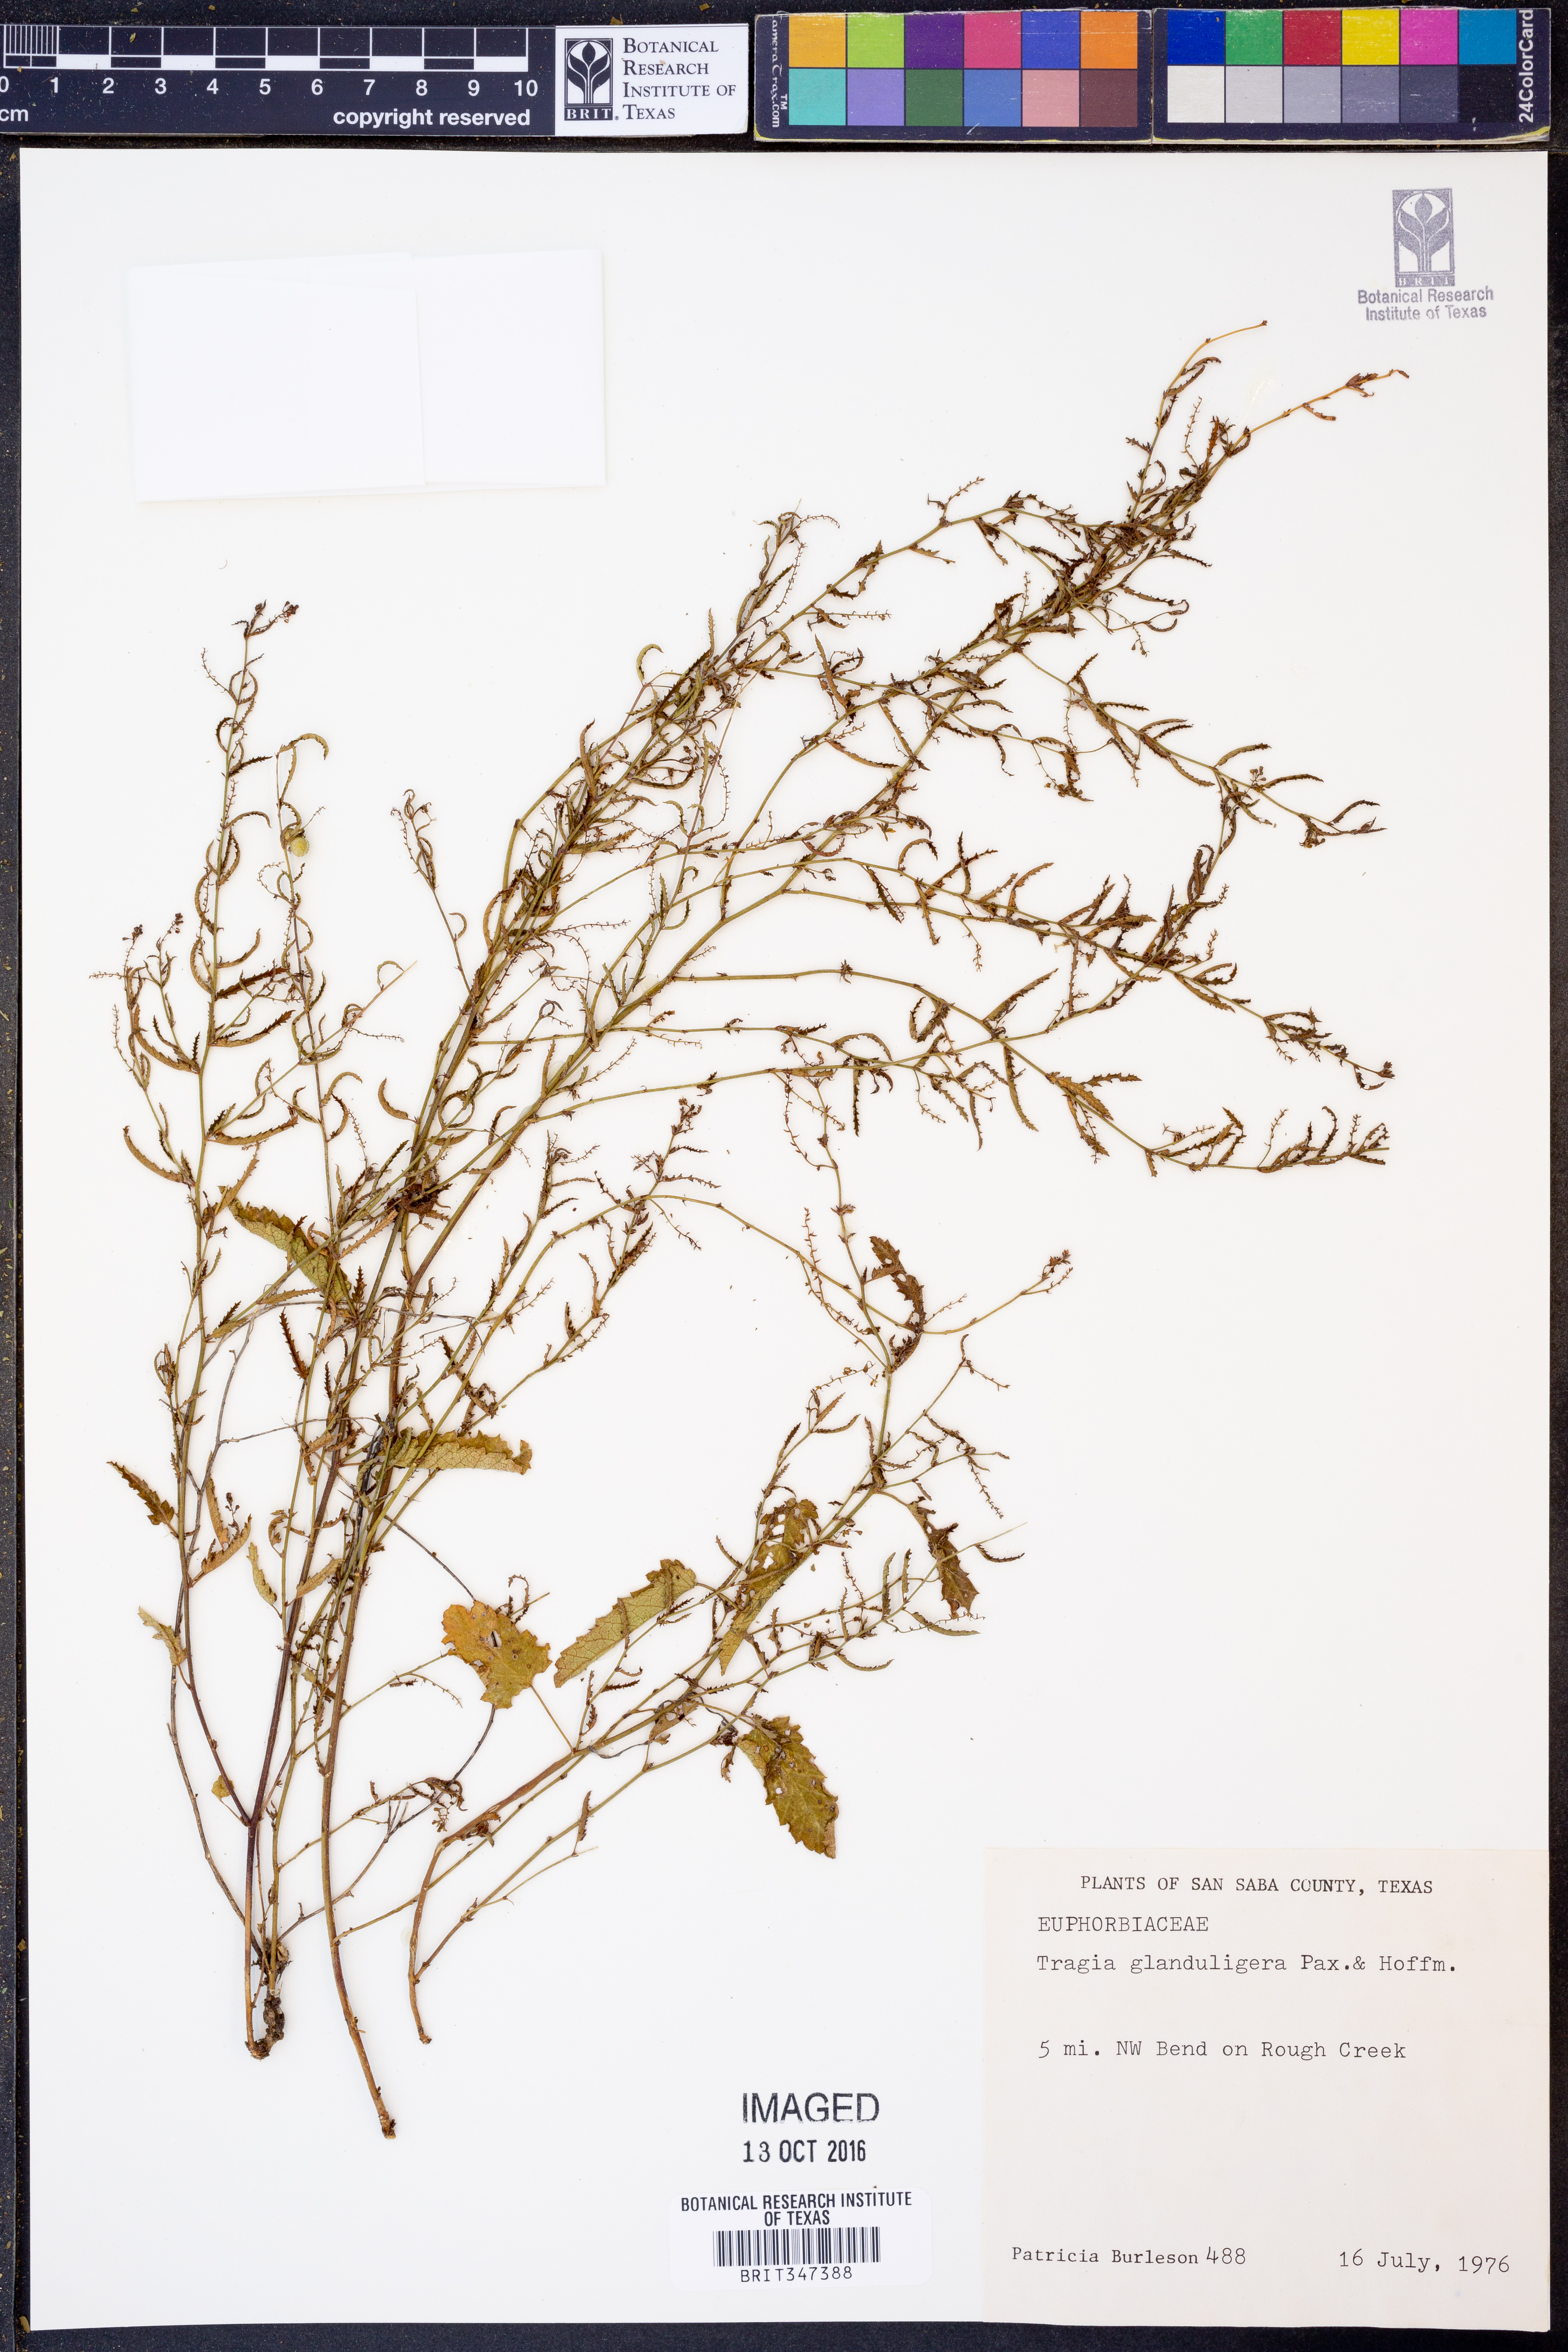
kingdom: Plantae
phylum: Tracheophyta
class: Magnoliopsida
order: Malpighiales
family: Euphorbiaceae
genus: Tragia
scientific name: Tragia glanduligera
